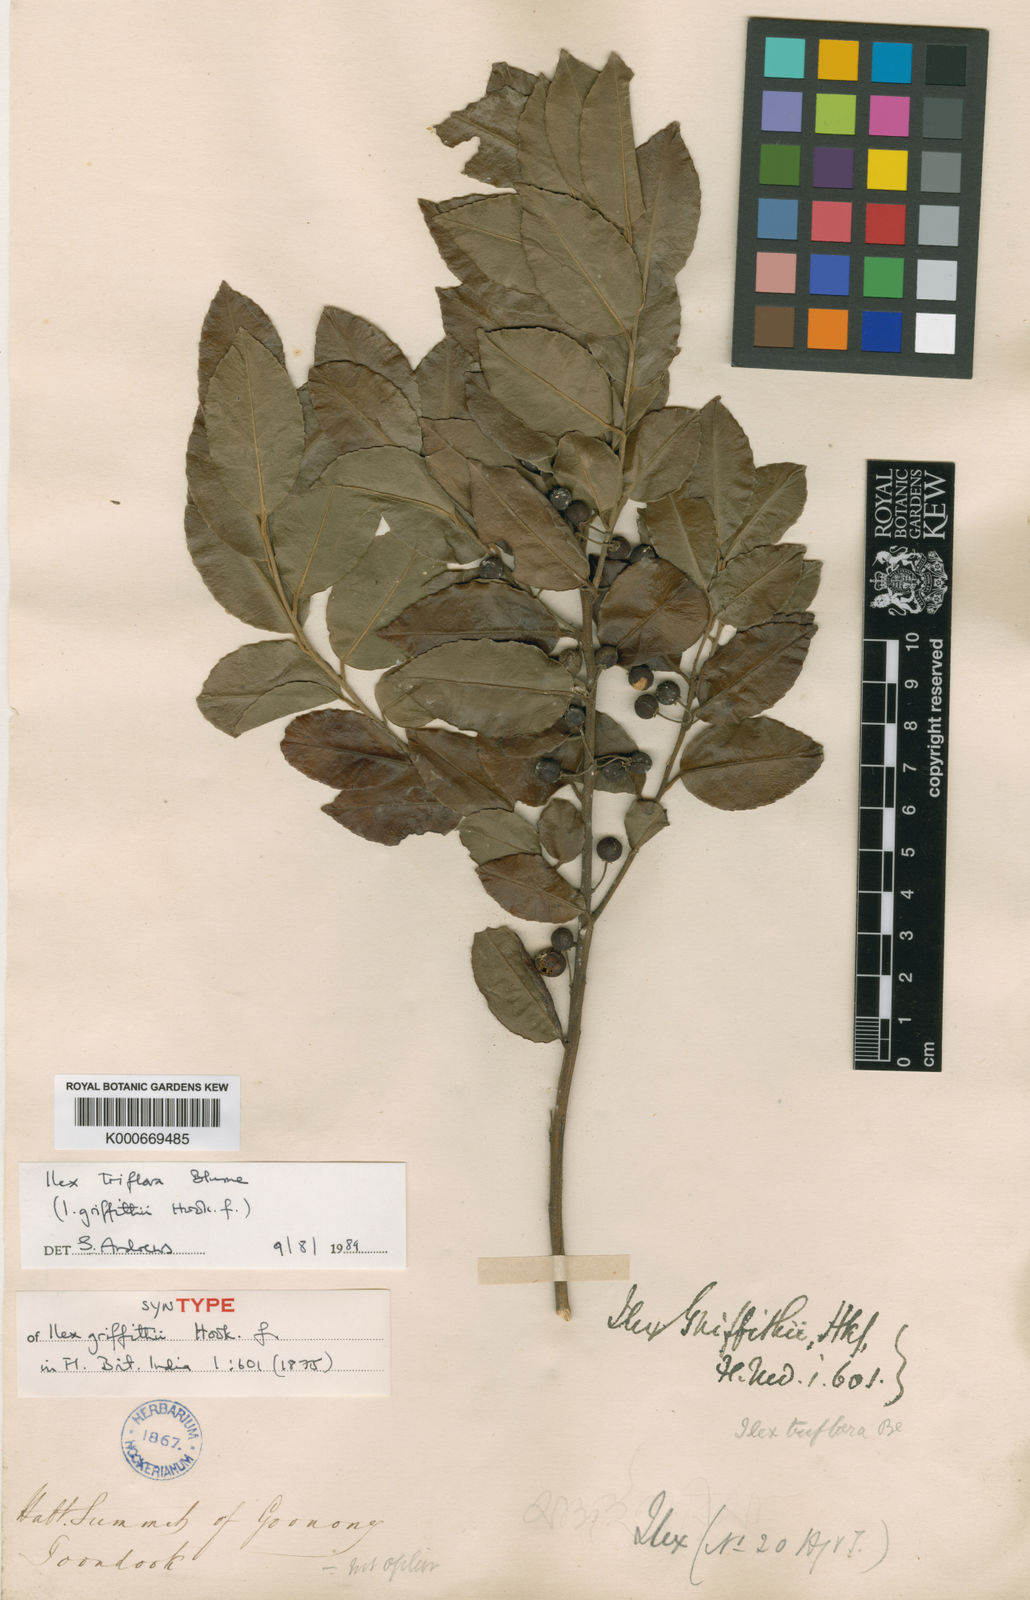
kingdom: Plantae
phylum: Tracheophyta
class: Magnoliopsida
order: Aquifoliales
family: Aquifoliaceae
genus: Ilex
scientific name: Ilex triflora
